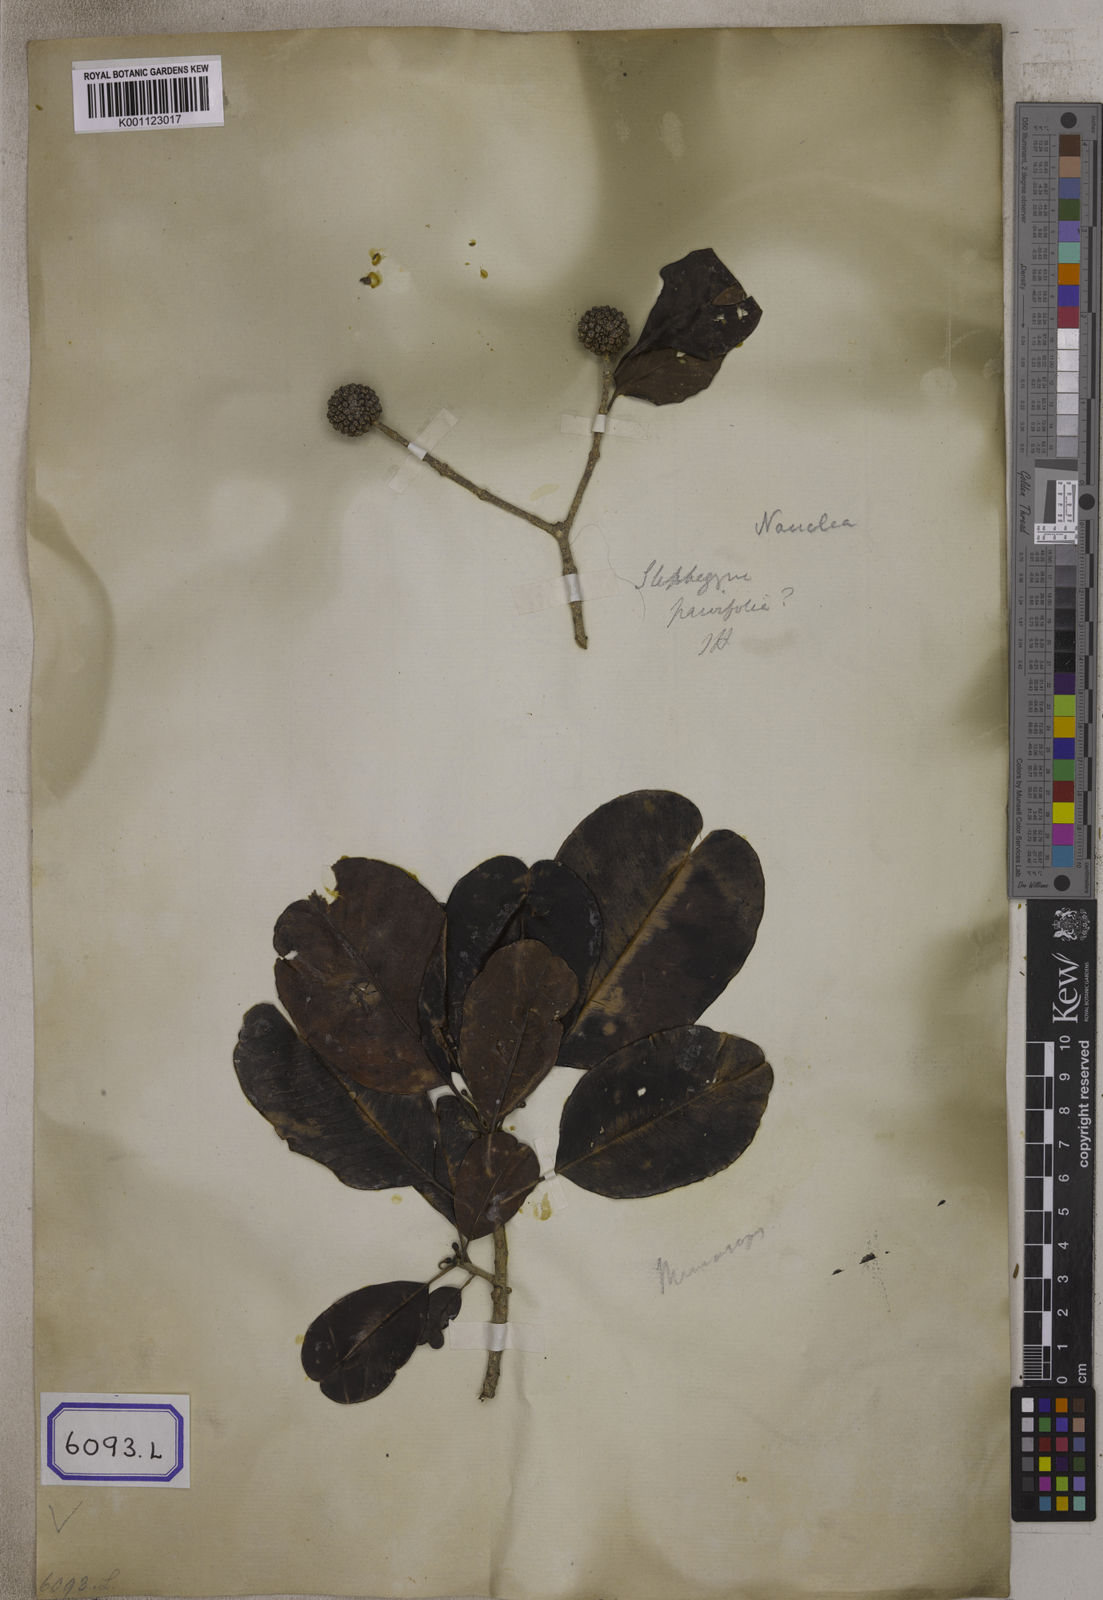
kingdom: Plantae
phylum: Tracheophyta
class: Magnoliopsida
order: Gentianales
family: Rubiaceae
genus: Nauclea
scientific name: Nauclea
